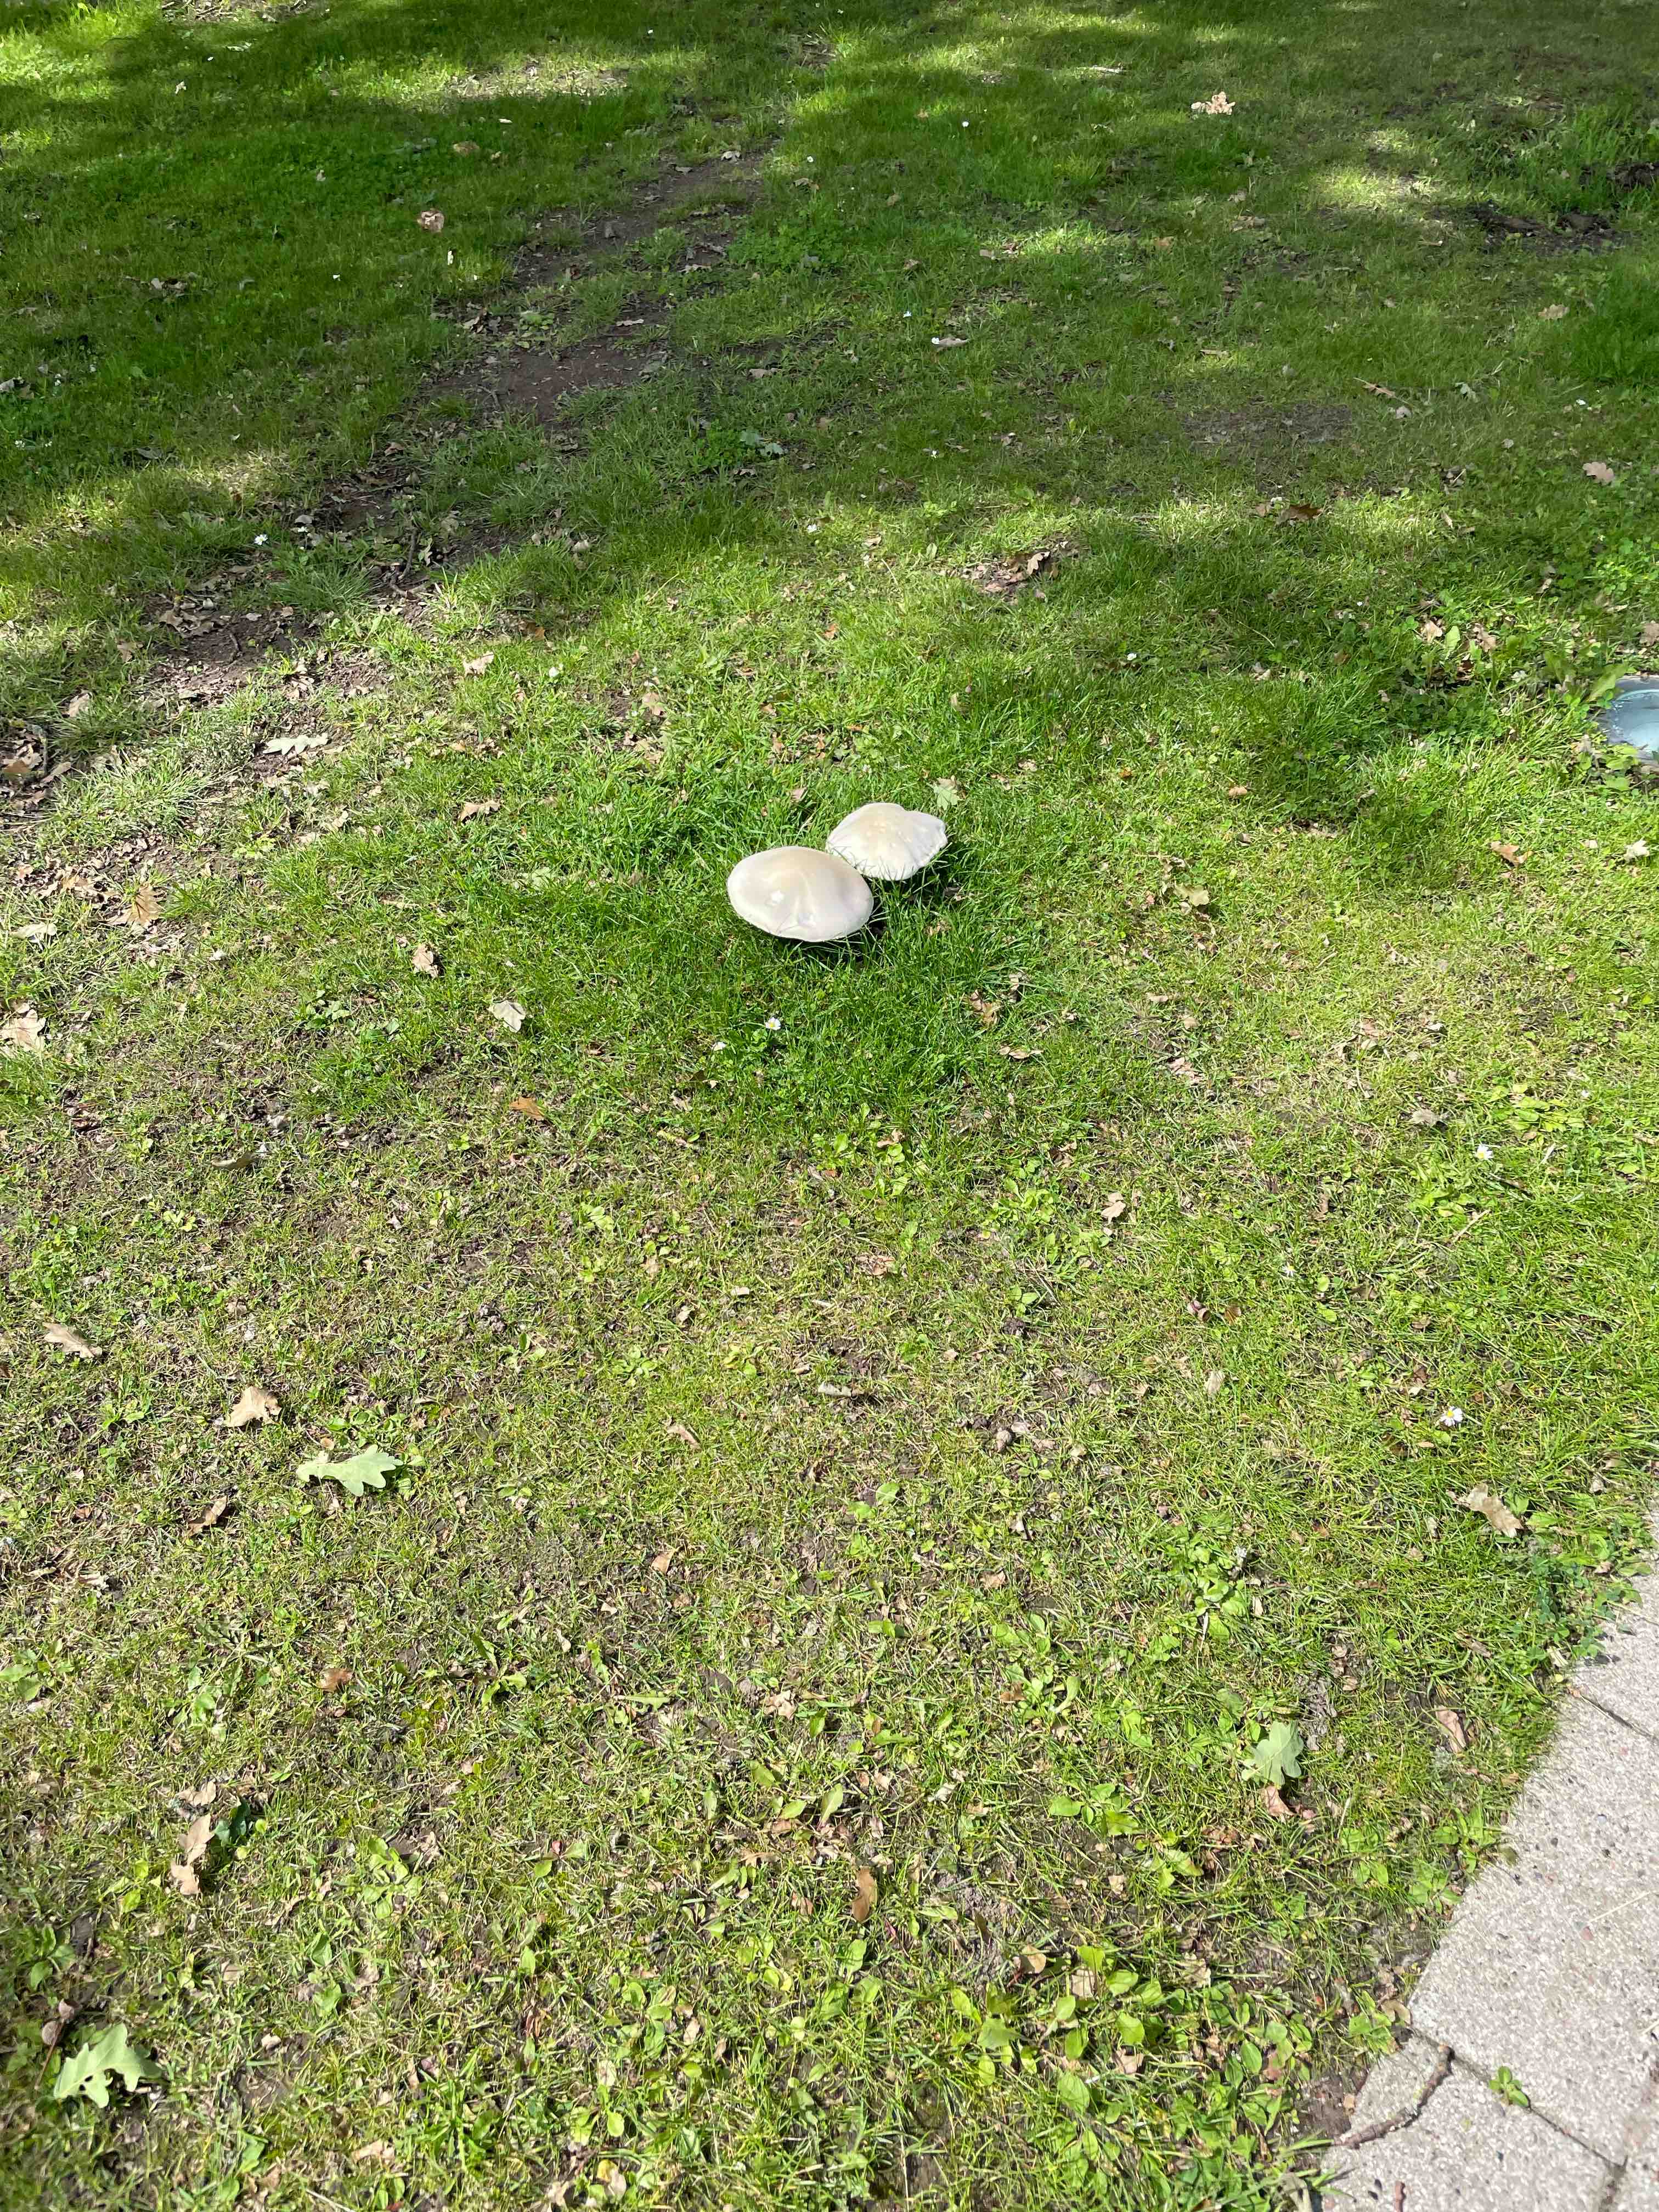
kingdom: Fungi
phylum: Basidiomycota
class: Agaricomycetes
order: Agaricales
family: Agaricaceae
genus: Agaricus
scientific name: Agaricus
